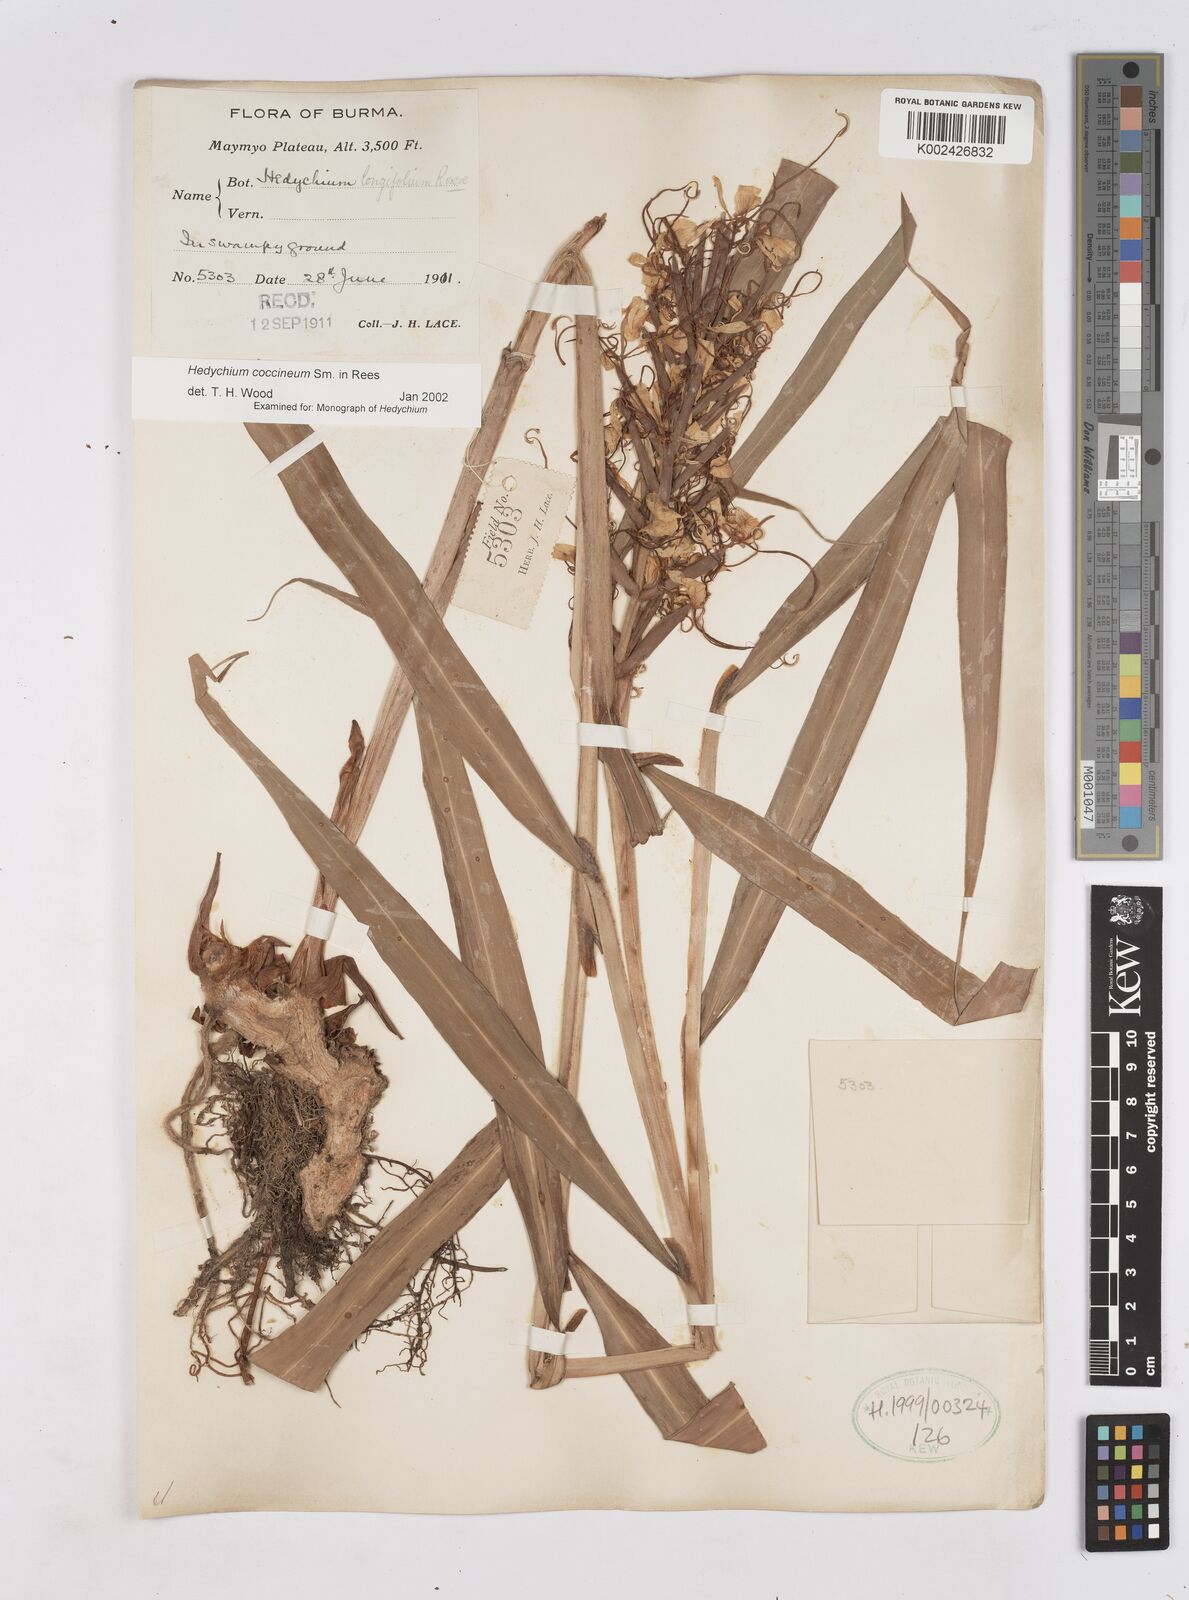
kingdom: Plantae
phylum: Tracheophyta
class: Liliopsida
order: Zingiberales
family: Zingiberaceae
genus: Hedychium
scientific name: Hedychium coccineum
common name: Red ginger-lily
